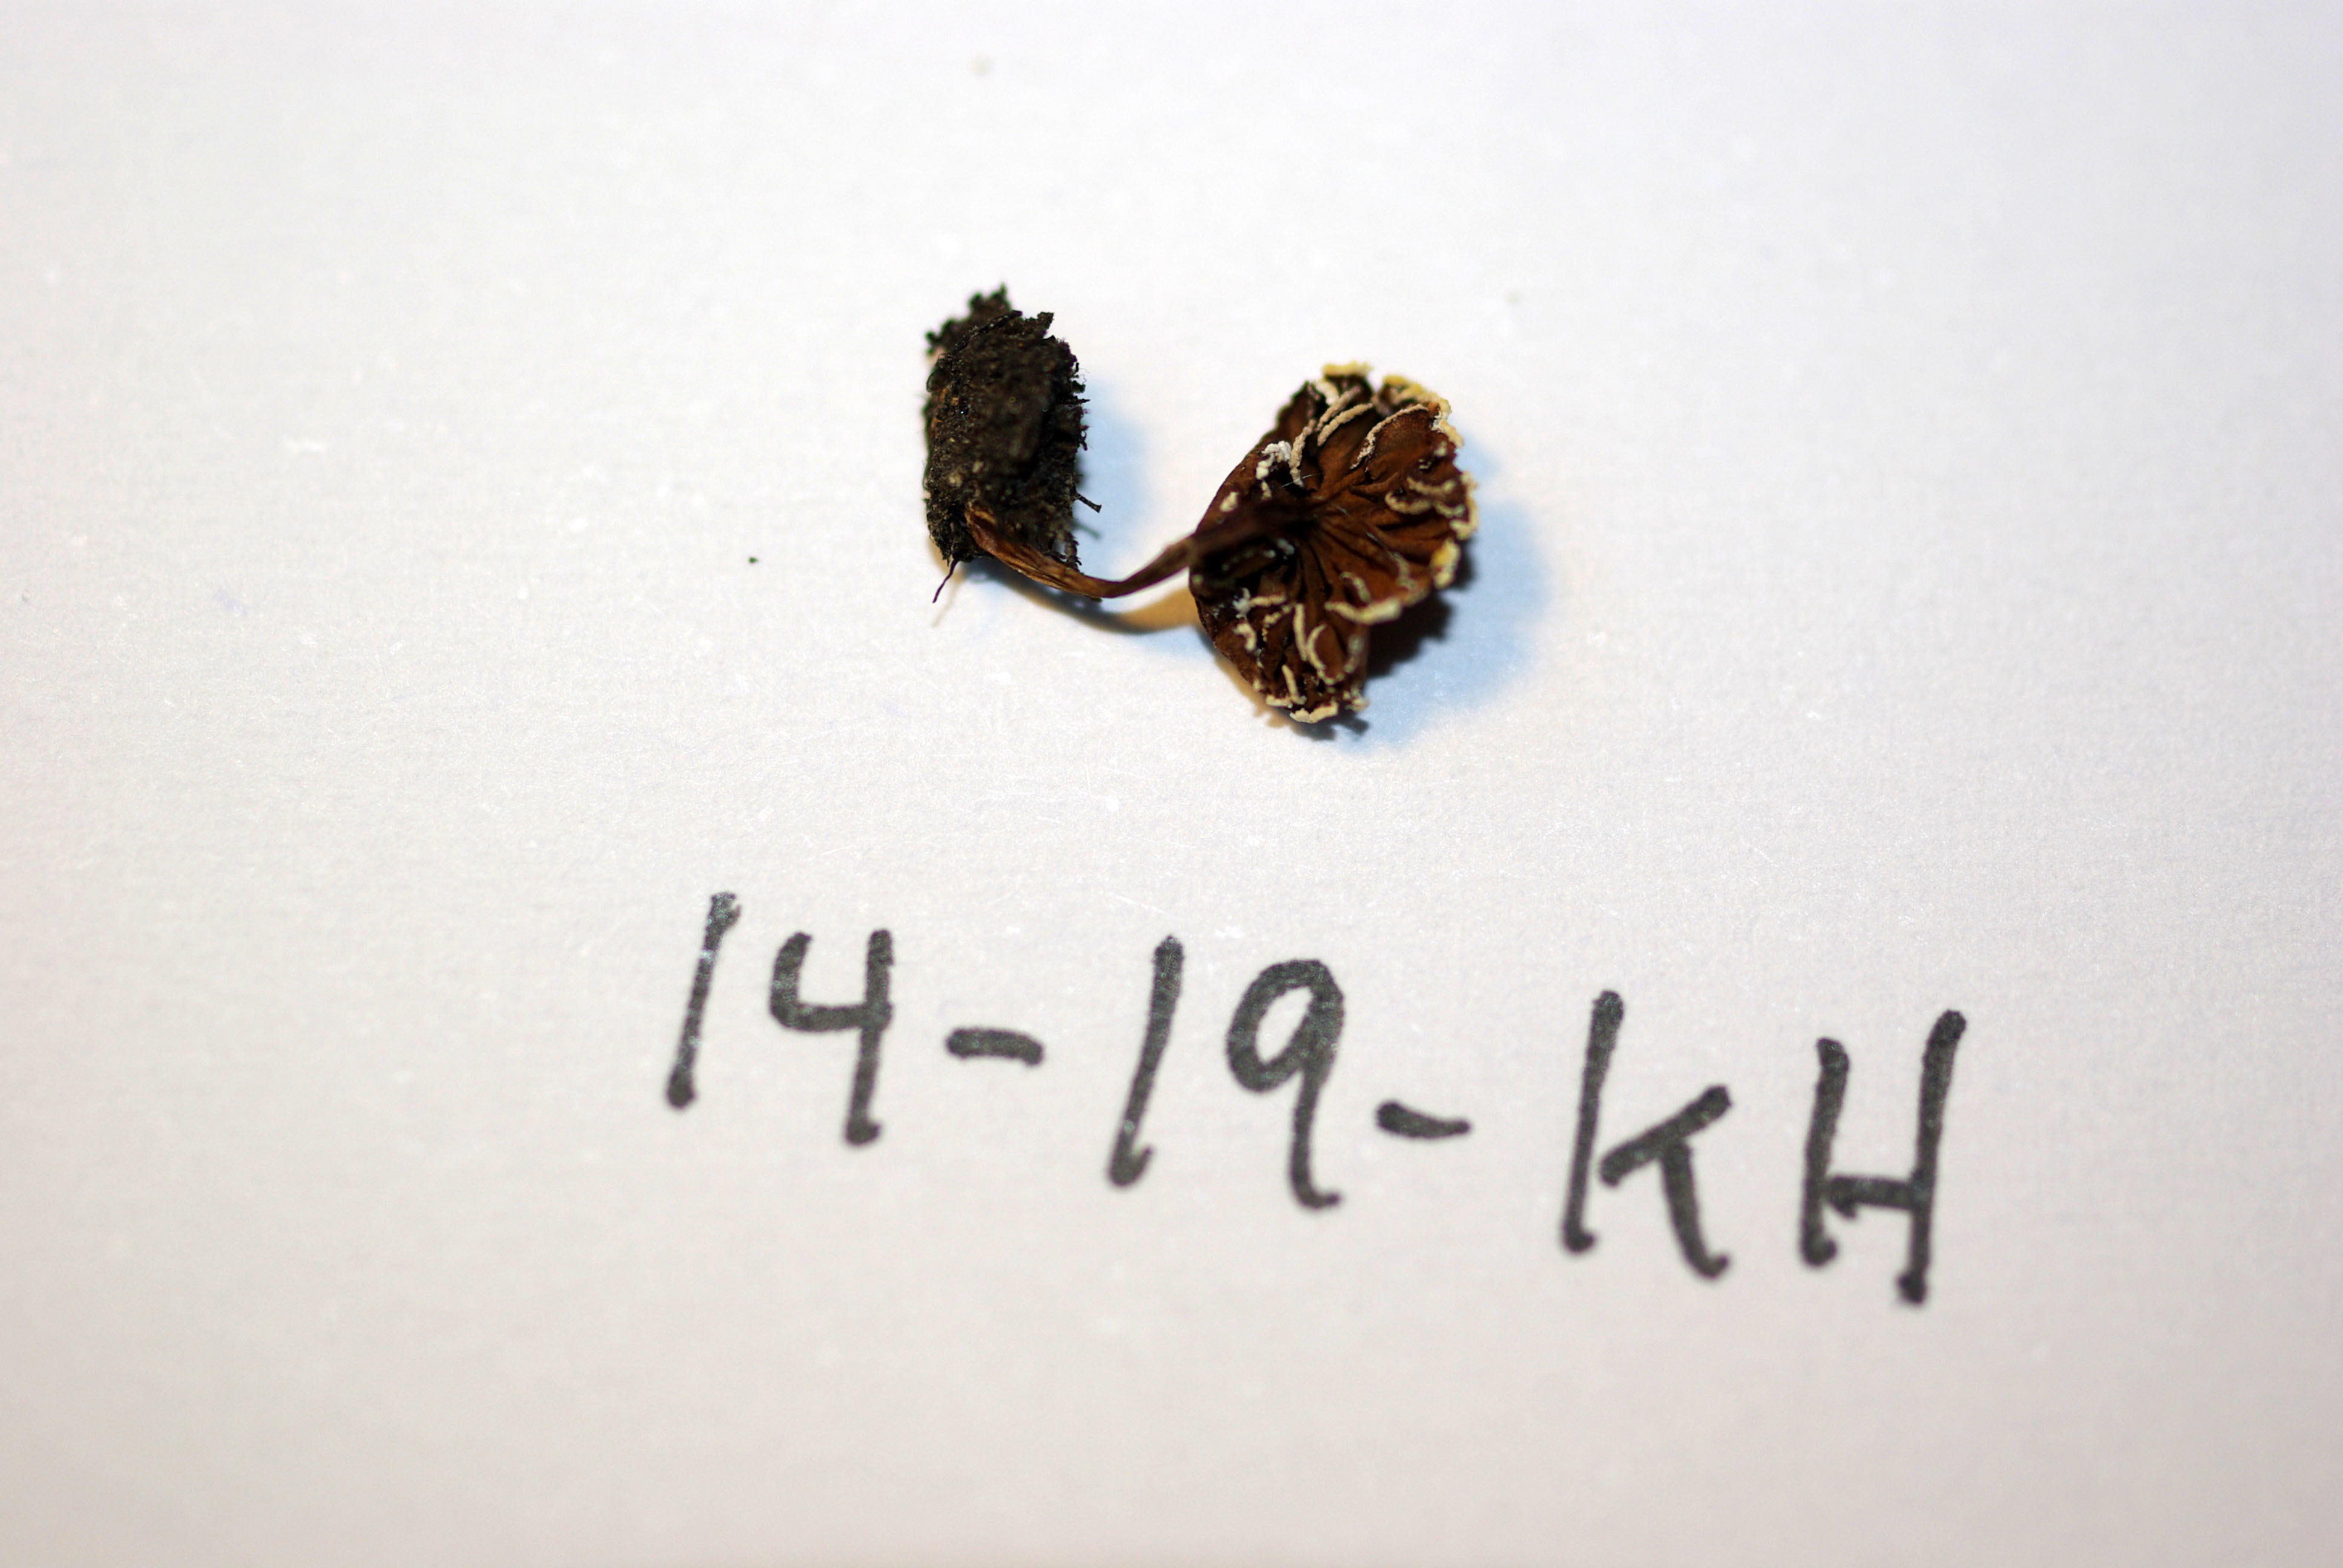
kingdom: Fungi
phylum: Basidiomycota
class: Agaricomycetes
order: Agaricales
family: Cortinariaceae
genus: Cortinarius
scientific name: Cortinarius pseudofallax
